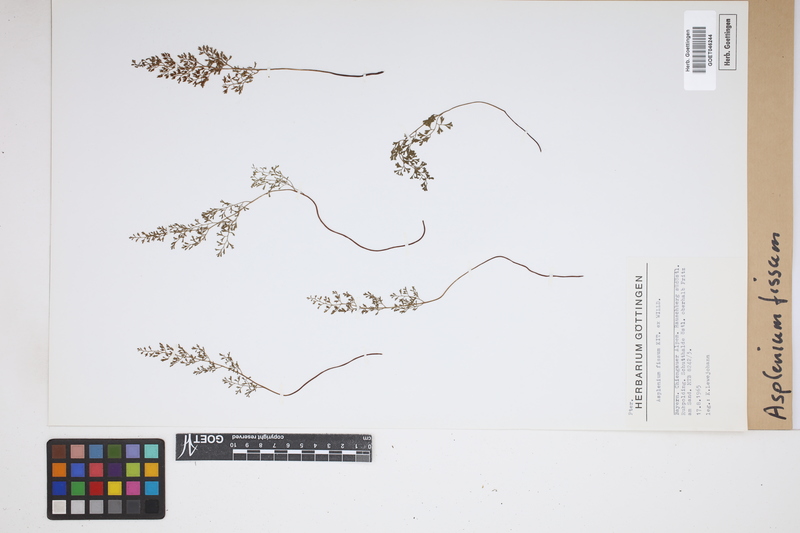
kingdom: Plantae
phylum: Tracheophyta
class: Polypodiopsida
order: Polypodiales
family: Aspleniaceae
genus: Asplenium
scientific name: Asplenium fissum
